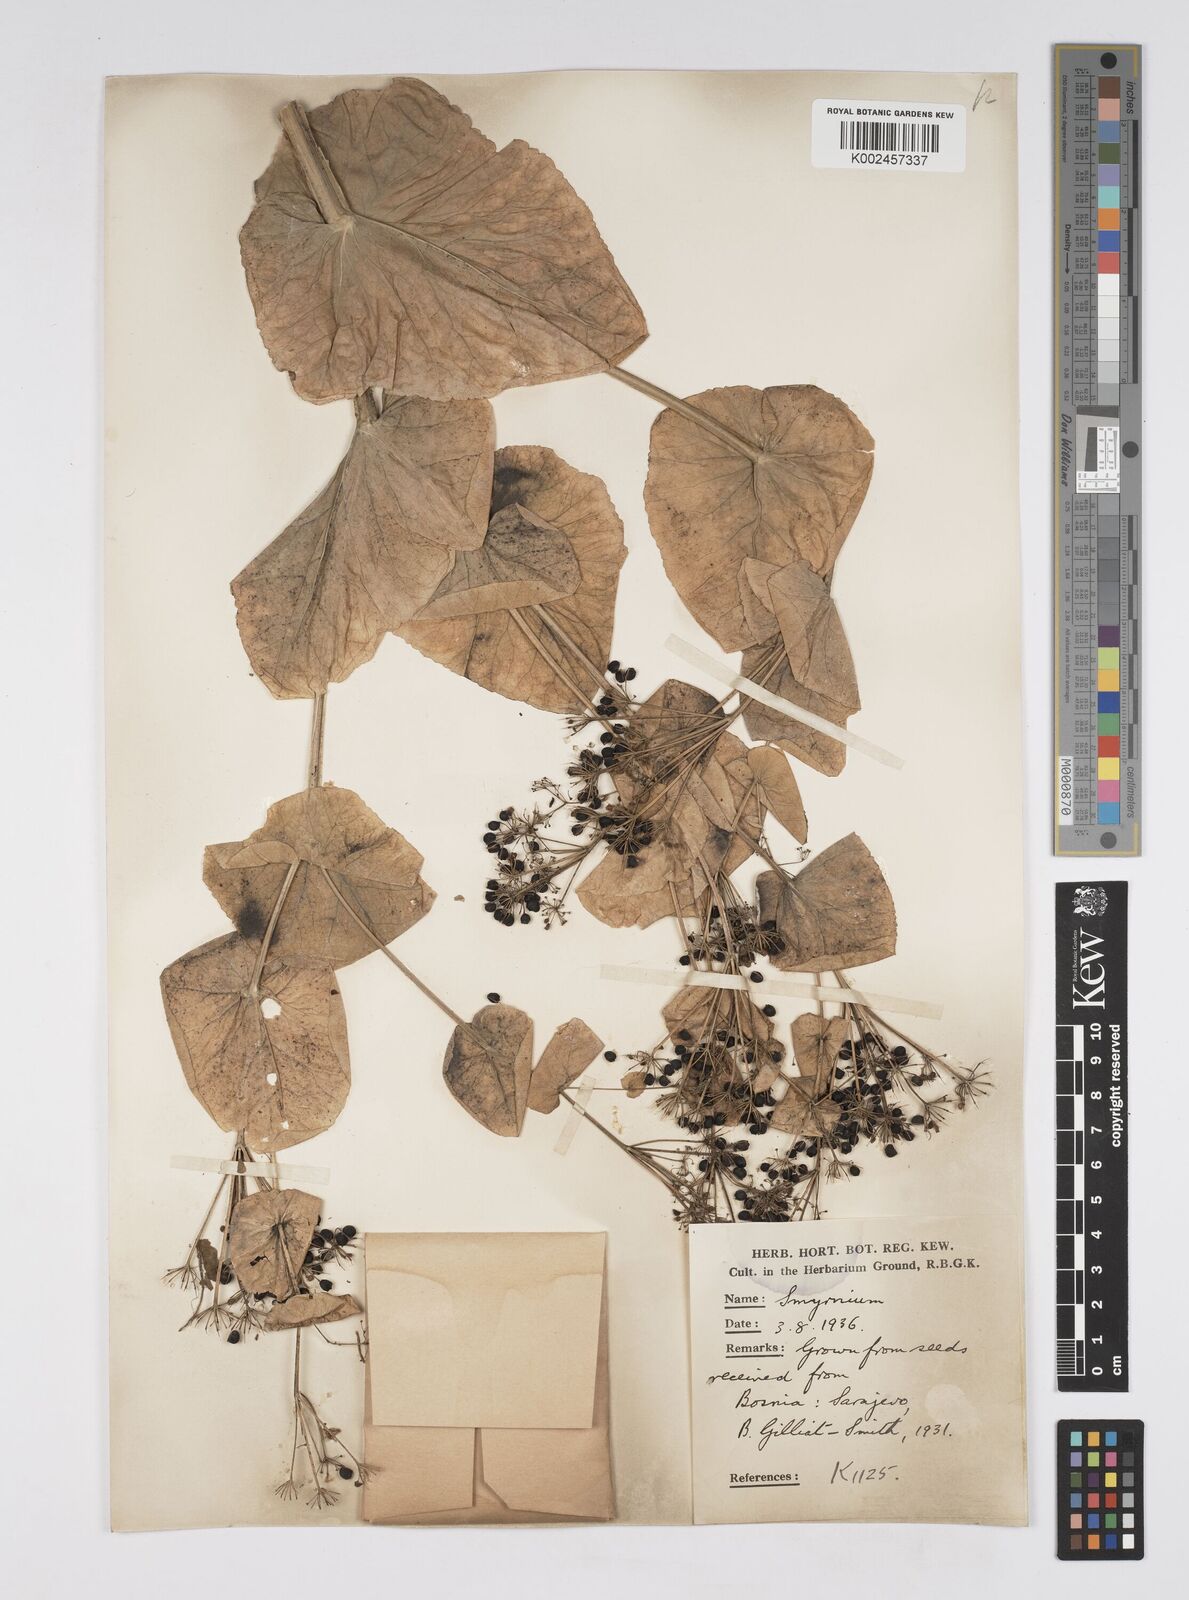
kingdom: Plantae
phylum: Tracheophyta
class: Magnoliopsida
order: Apiales
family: Apiaceae
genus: Smyrnium
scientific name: Smyrnium perfoliatum
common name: Perfoliate alexanders
